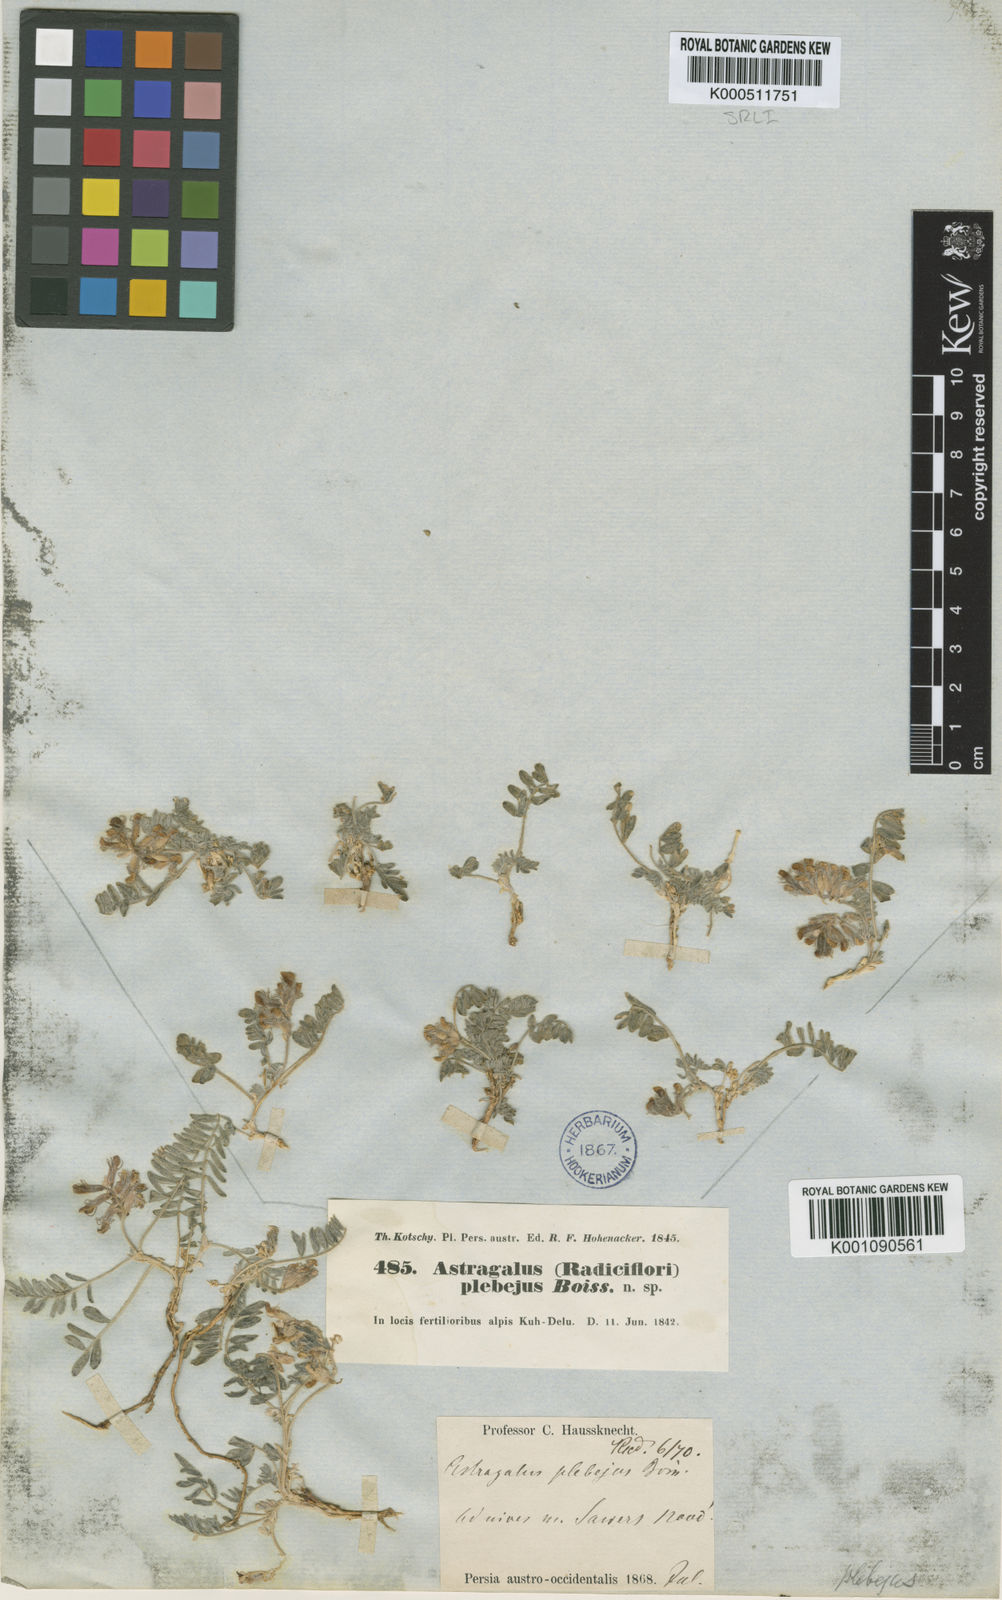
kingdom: Plantae
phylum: Tracheophyta
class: Magnoliopsida
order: Fabales
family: Fabaceae
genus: Astragalus
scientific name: Astragalus
